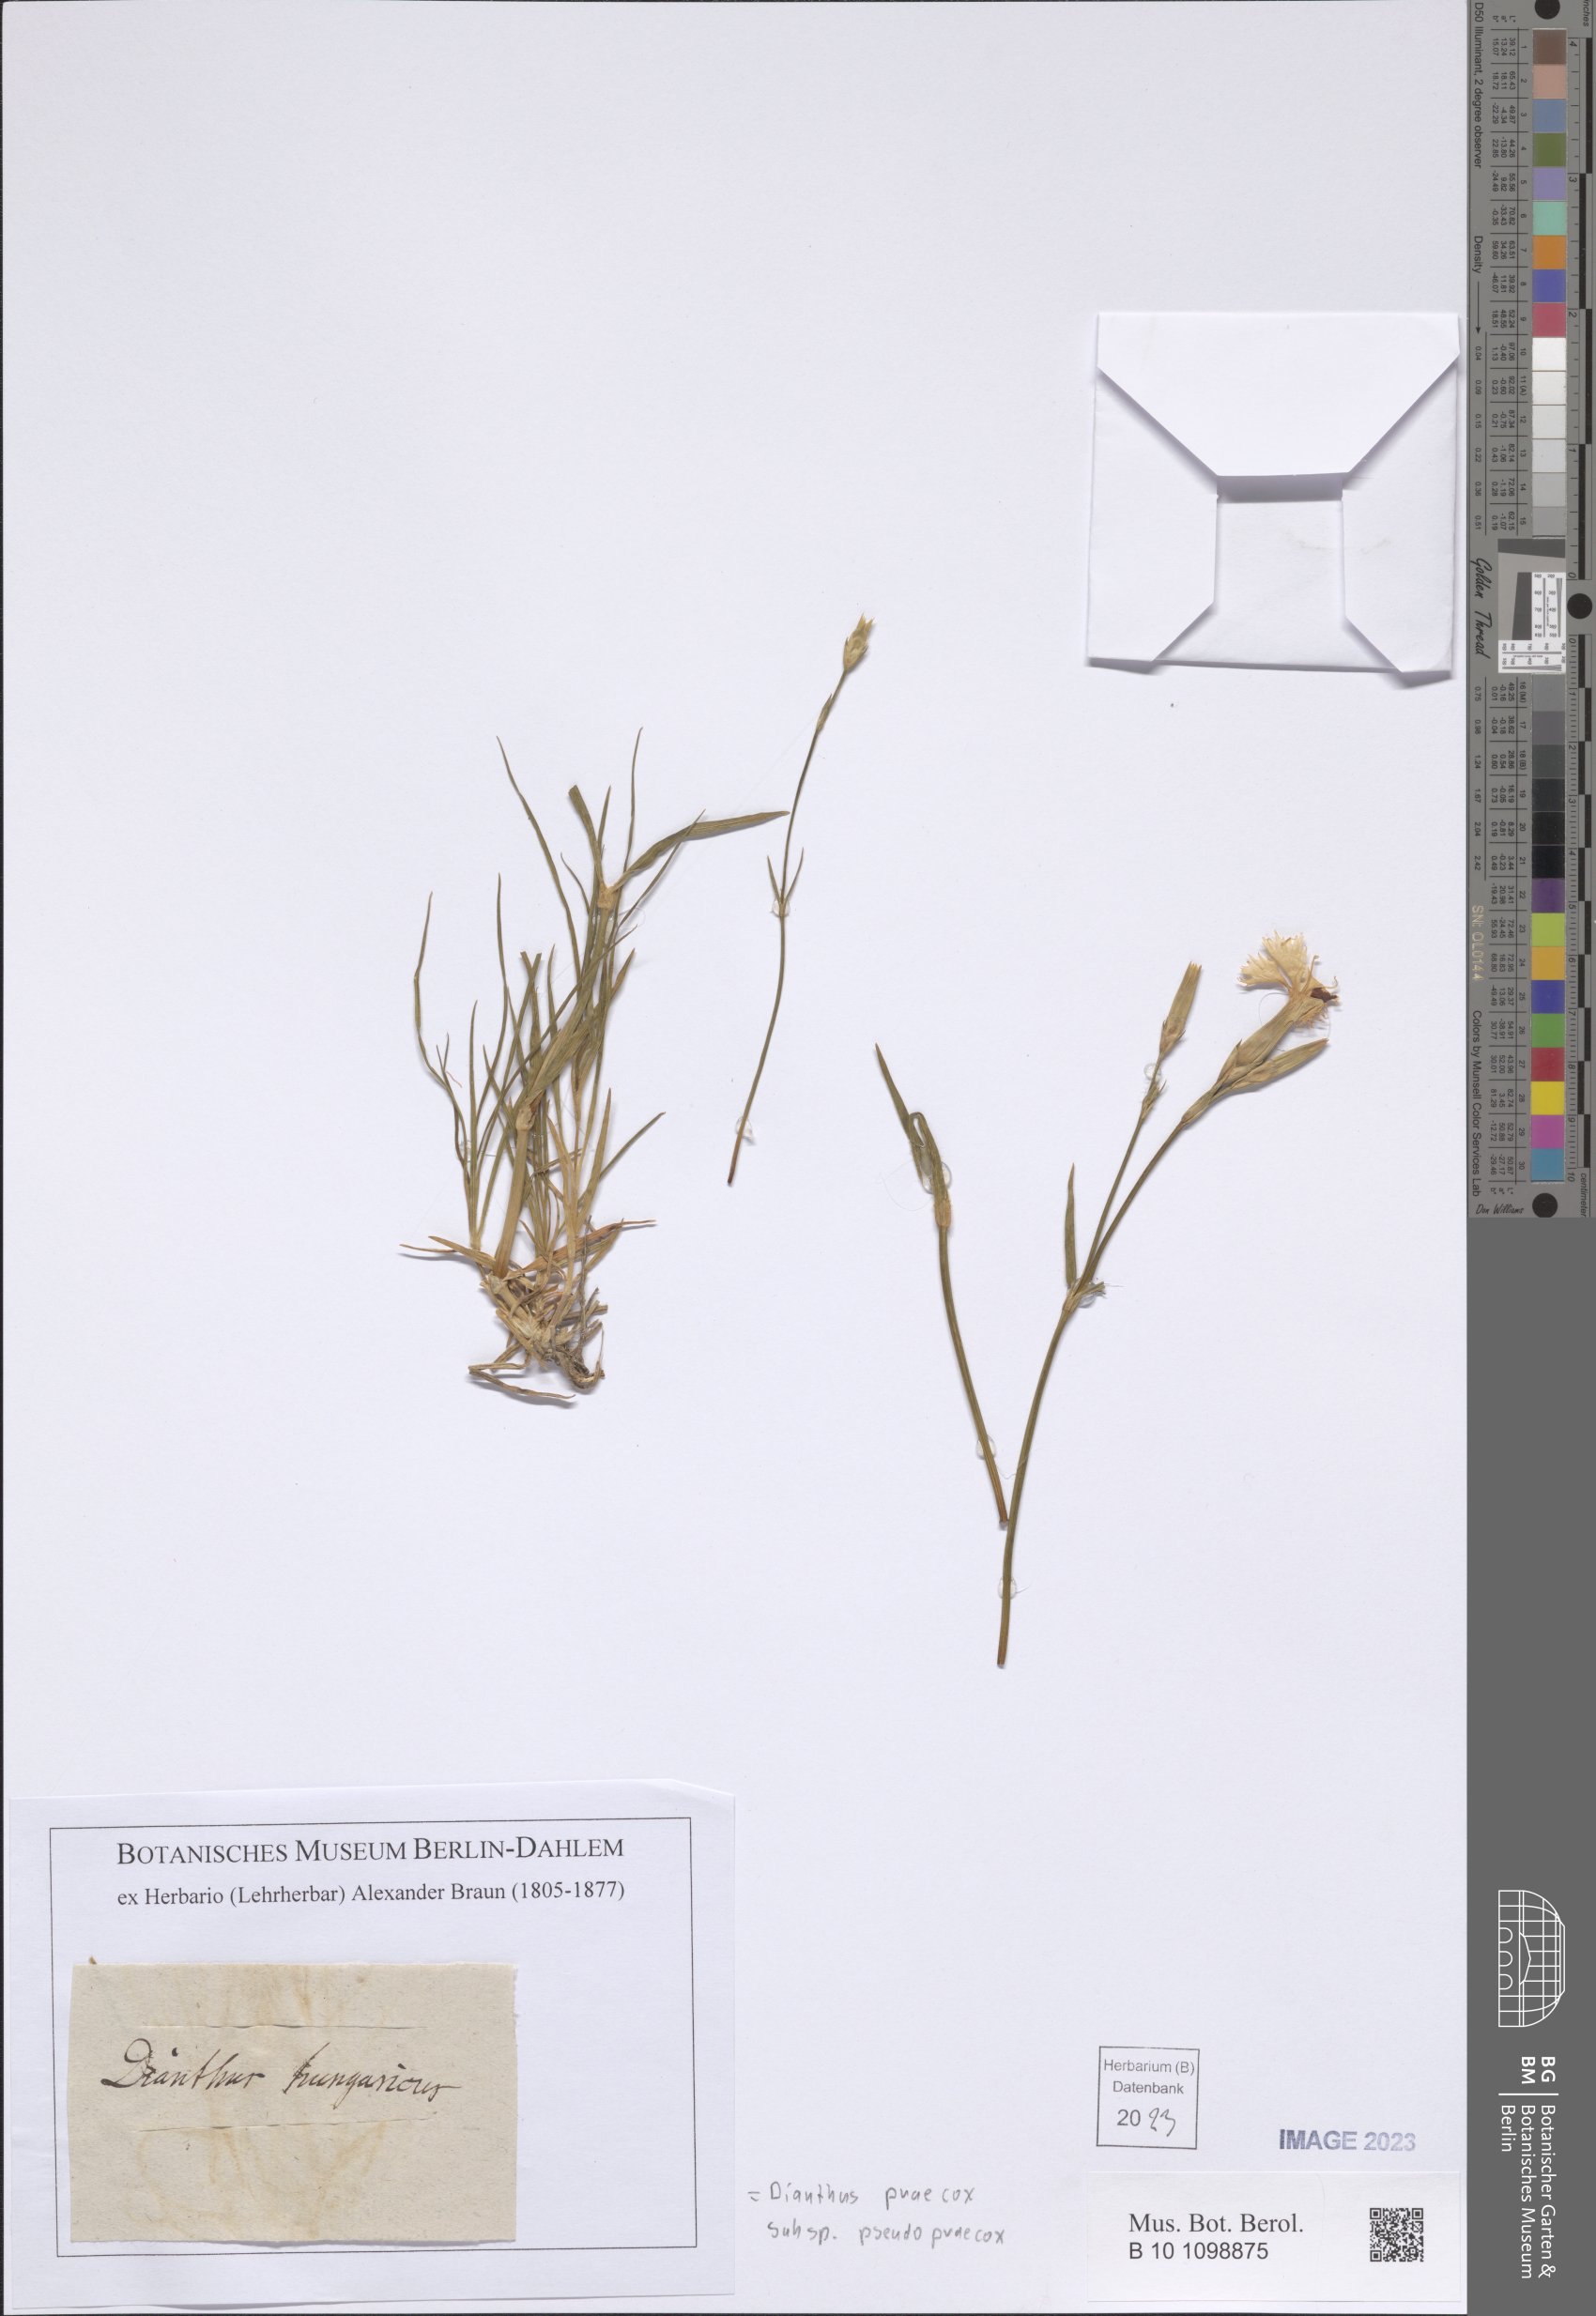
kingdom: Plantae
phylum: Tracheophyta
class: Magnoliopsida
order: Caryophyllales
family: Caryophyllaceae
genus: Dianthus
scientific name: Dianthus praecox
